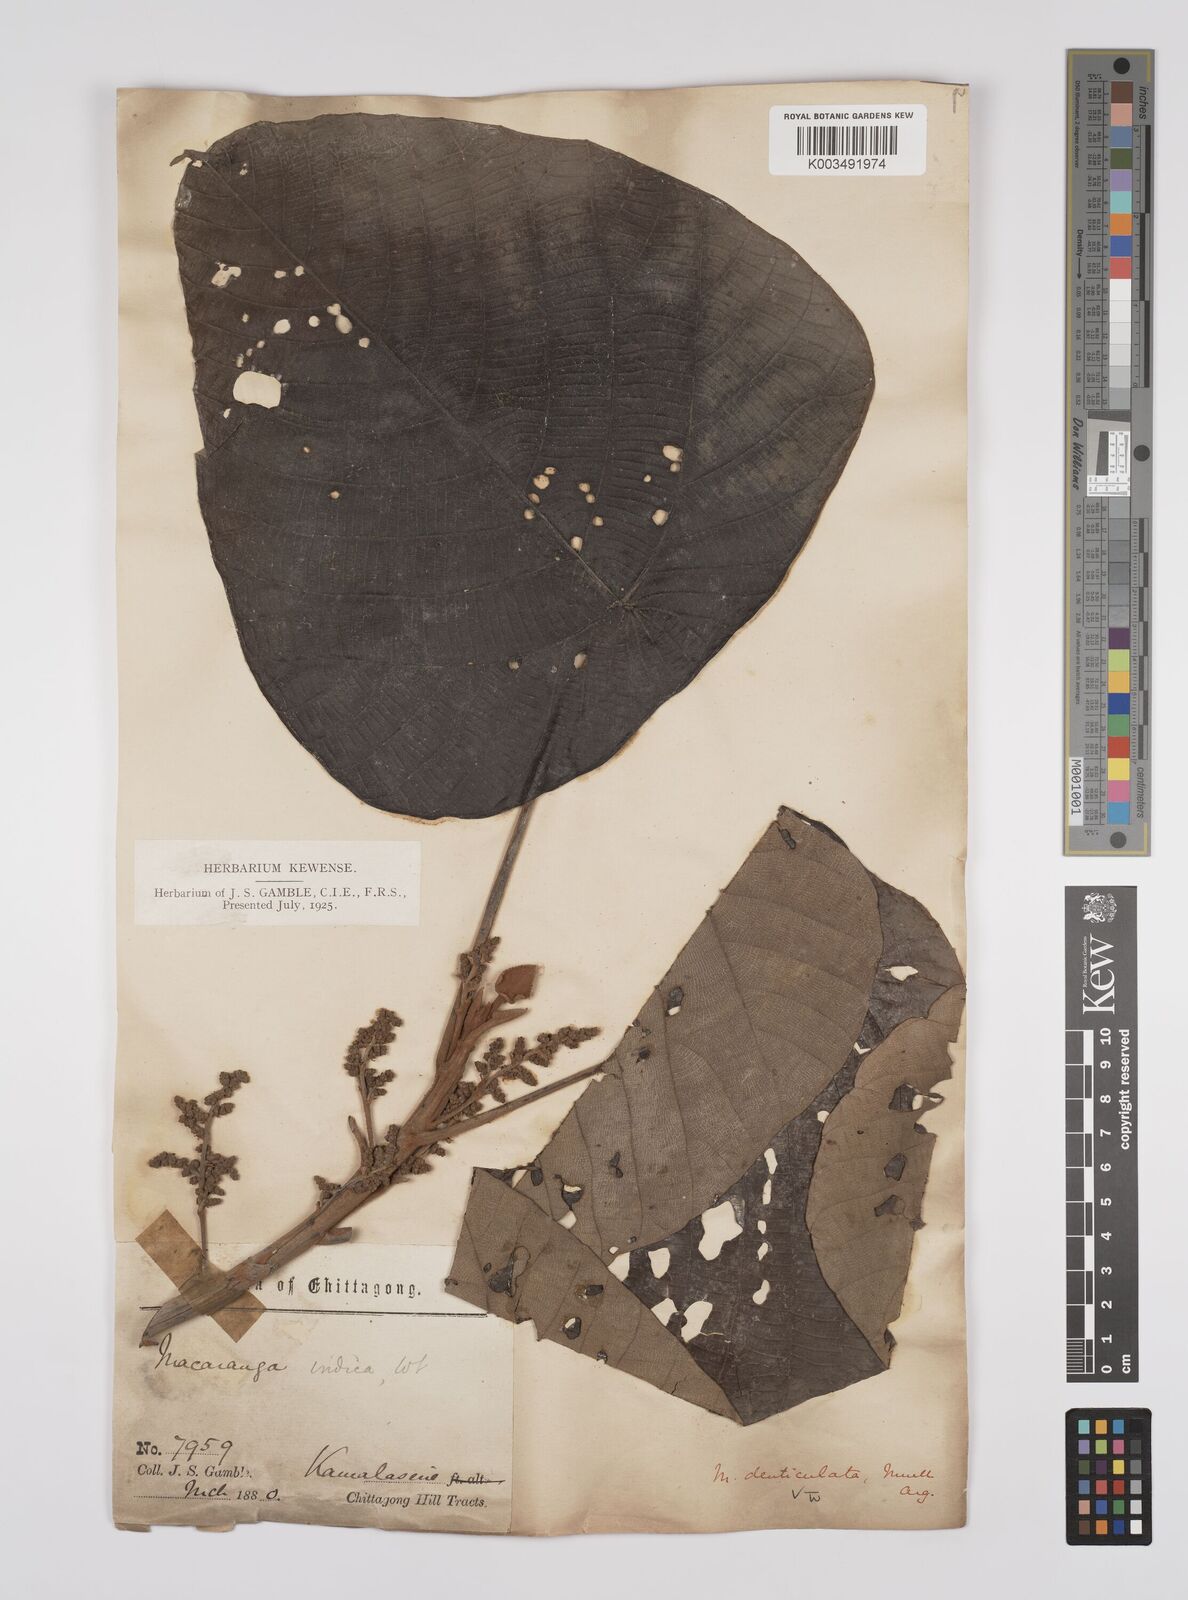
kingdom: Plantae
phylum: Tracheophyta
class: Magnoliopsida
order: Malpighiales
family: Euphorbiaceae
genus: Macaranga
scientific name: Macaranga
